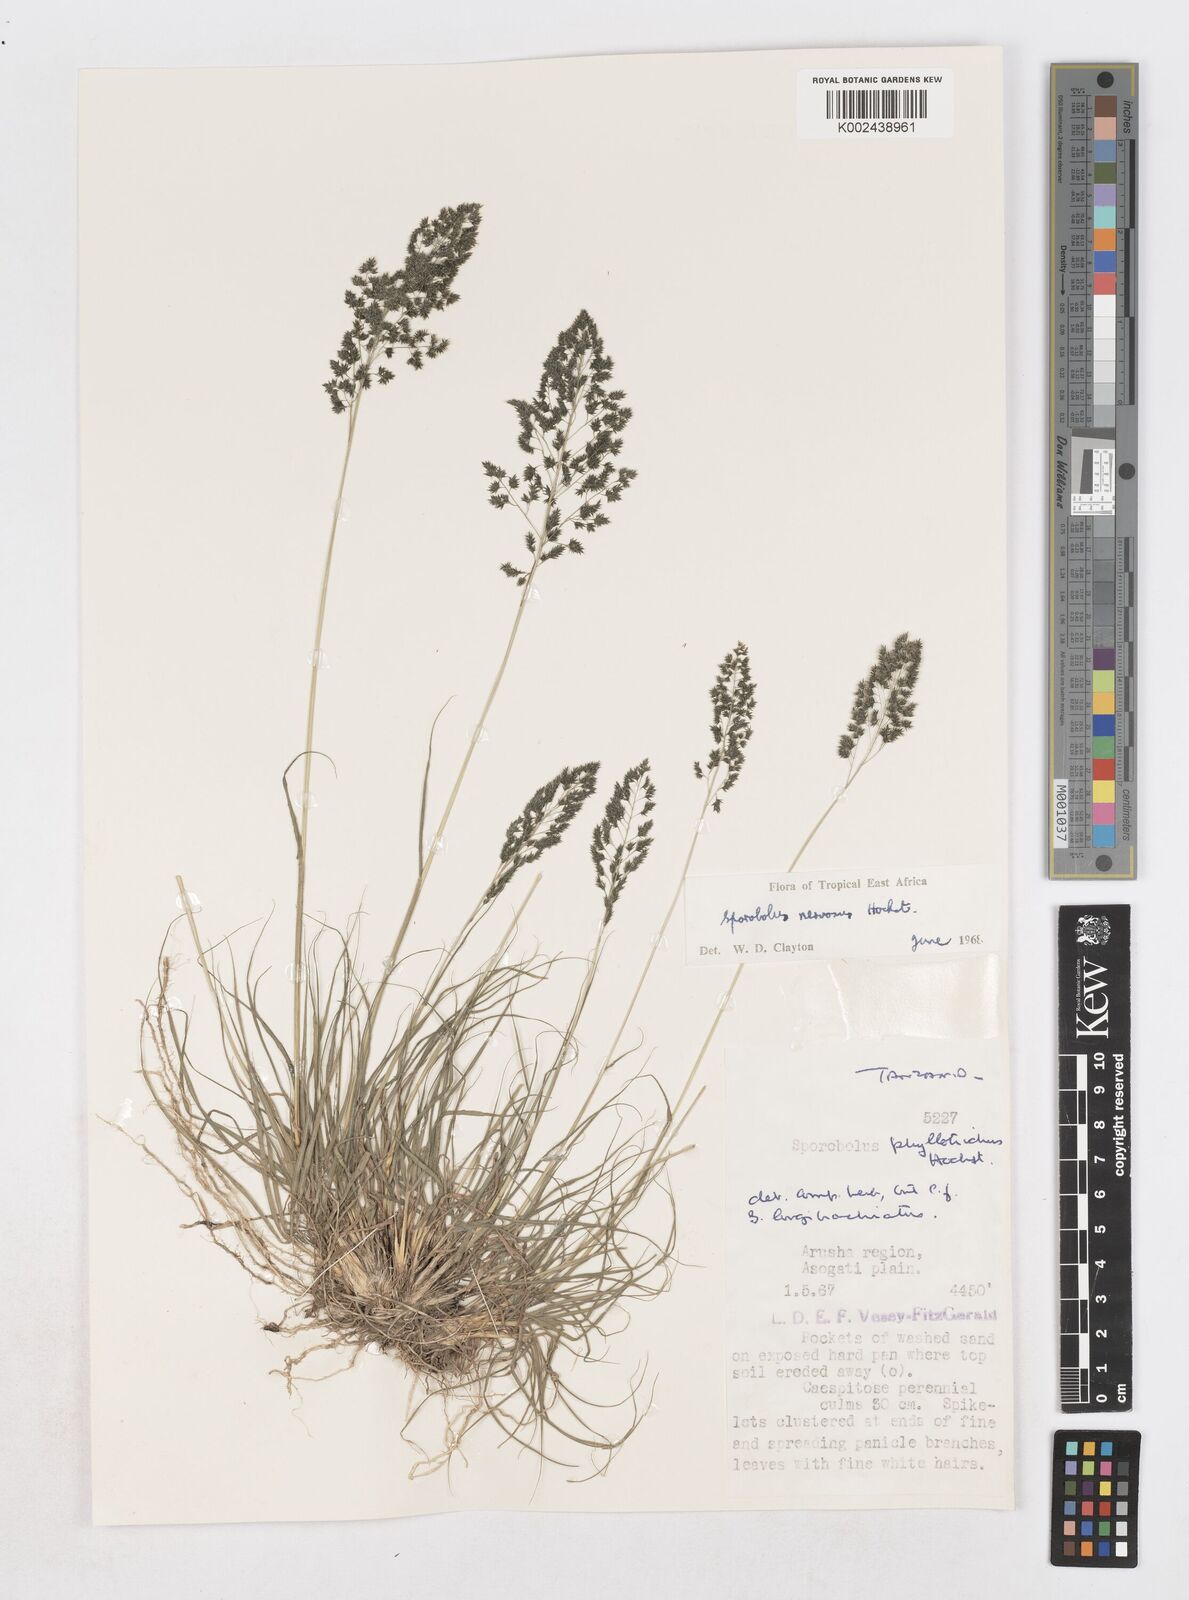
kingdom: Plantae
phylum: Tracheophyta
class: Liliopsida
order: Poales
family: Poaceae
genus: Sporobolus
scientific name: Sporobolus nervosus
